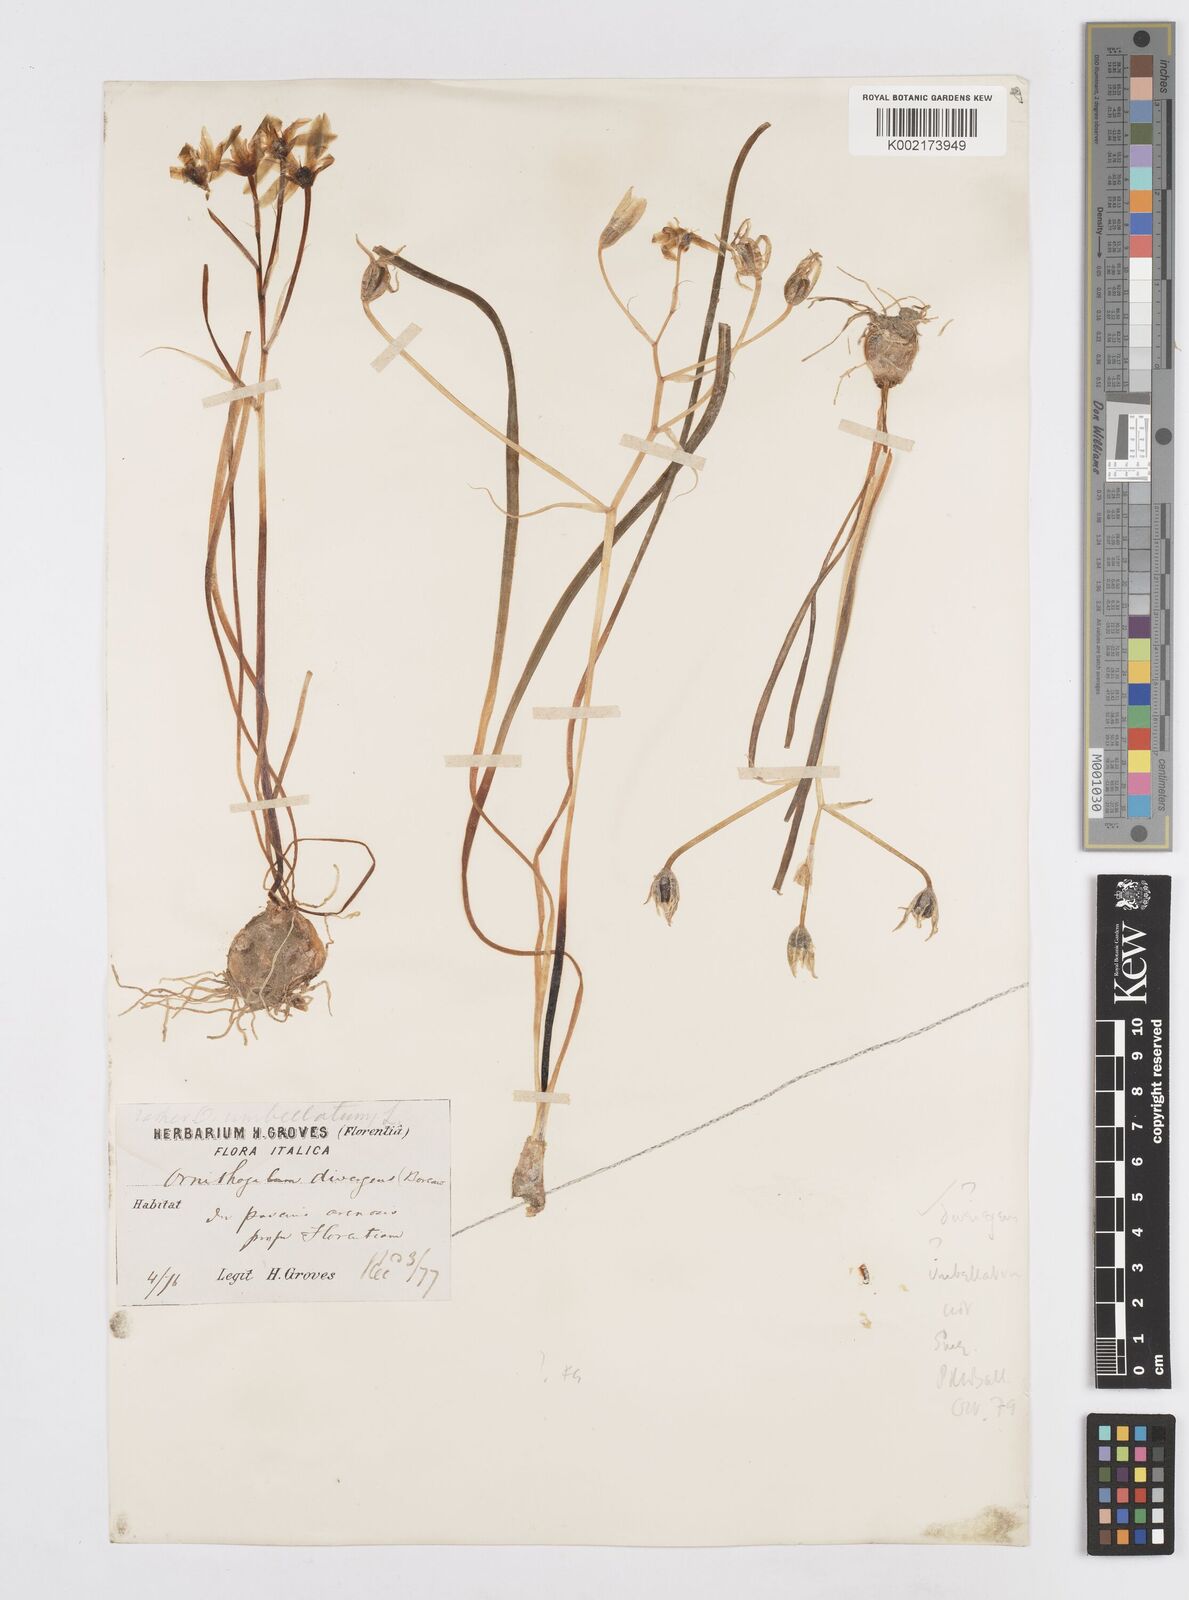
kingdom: Plantae
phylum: Tracheophyta
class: Liliopsida
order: Asparagales
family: Asparagaceae
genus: Ornithogalum
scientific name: Ornithogalum divergens
